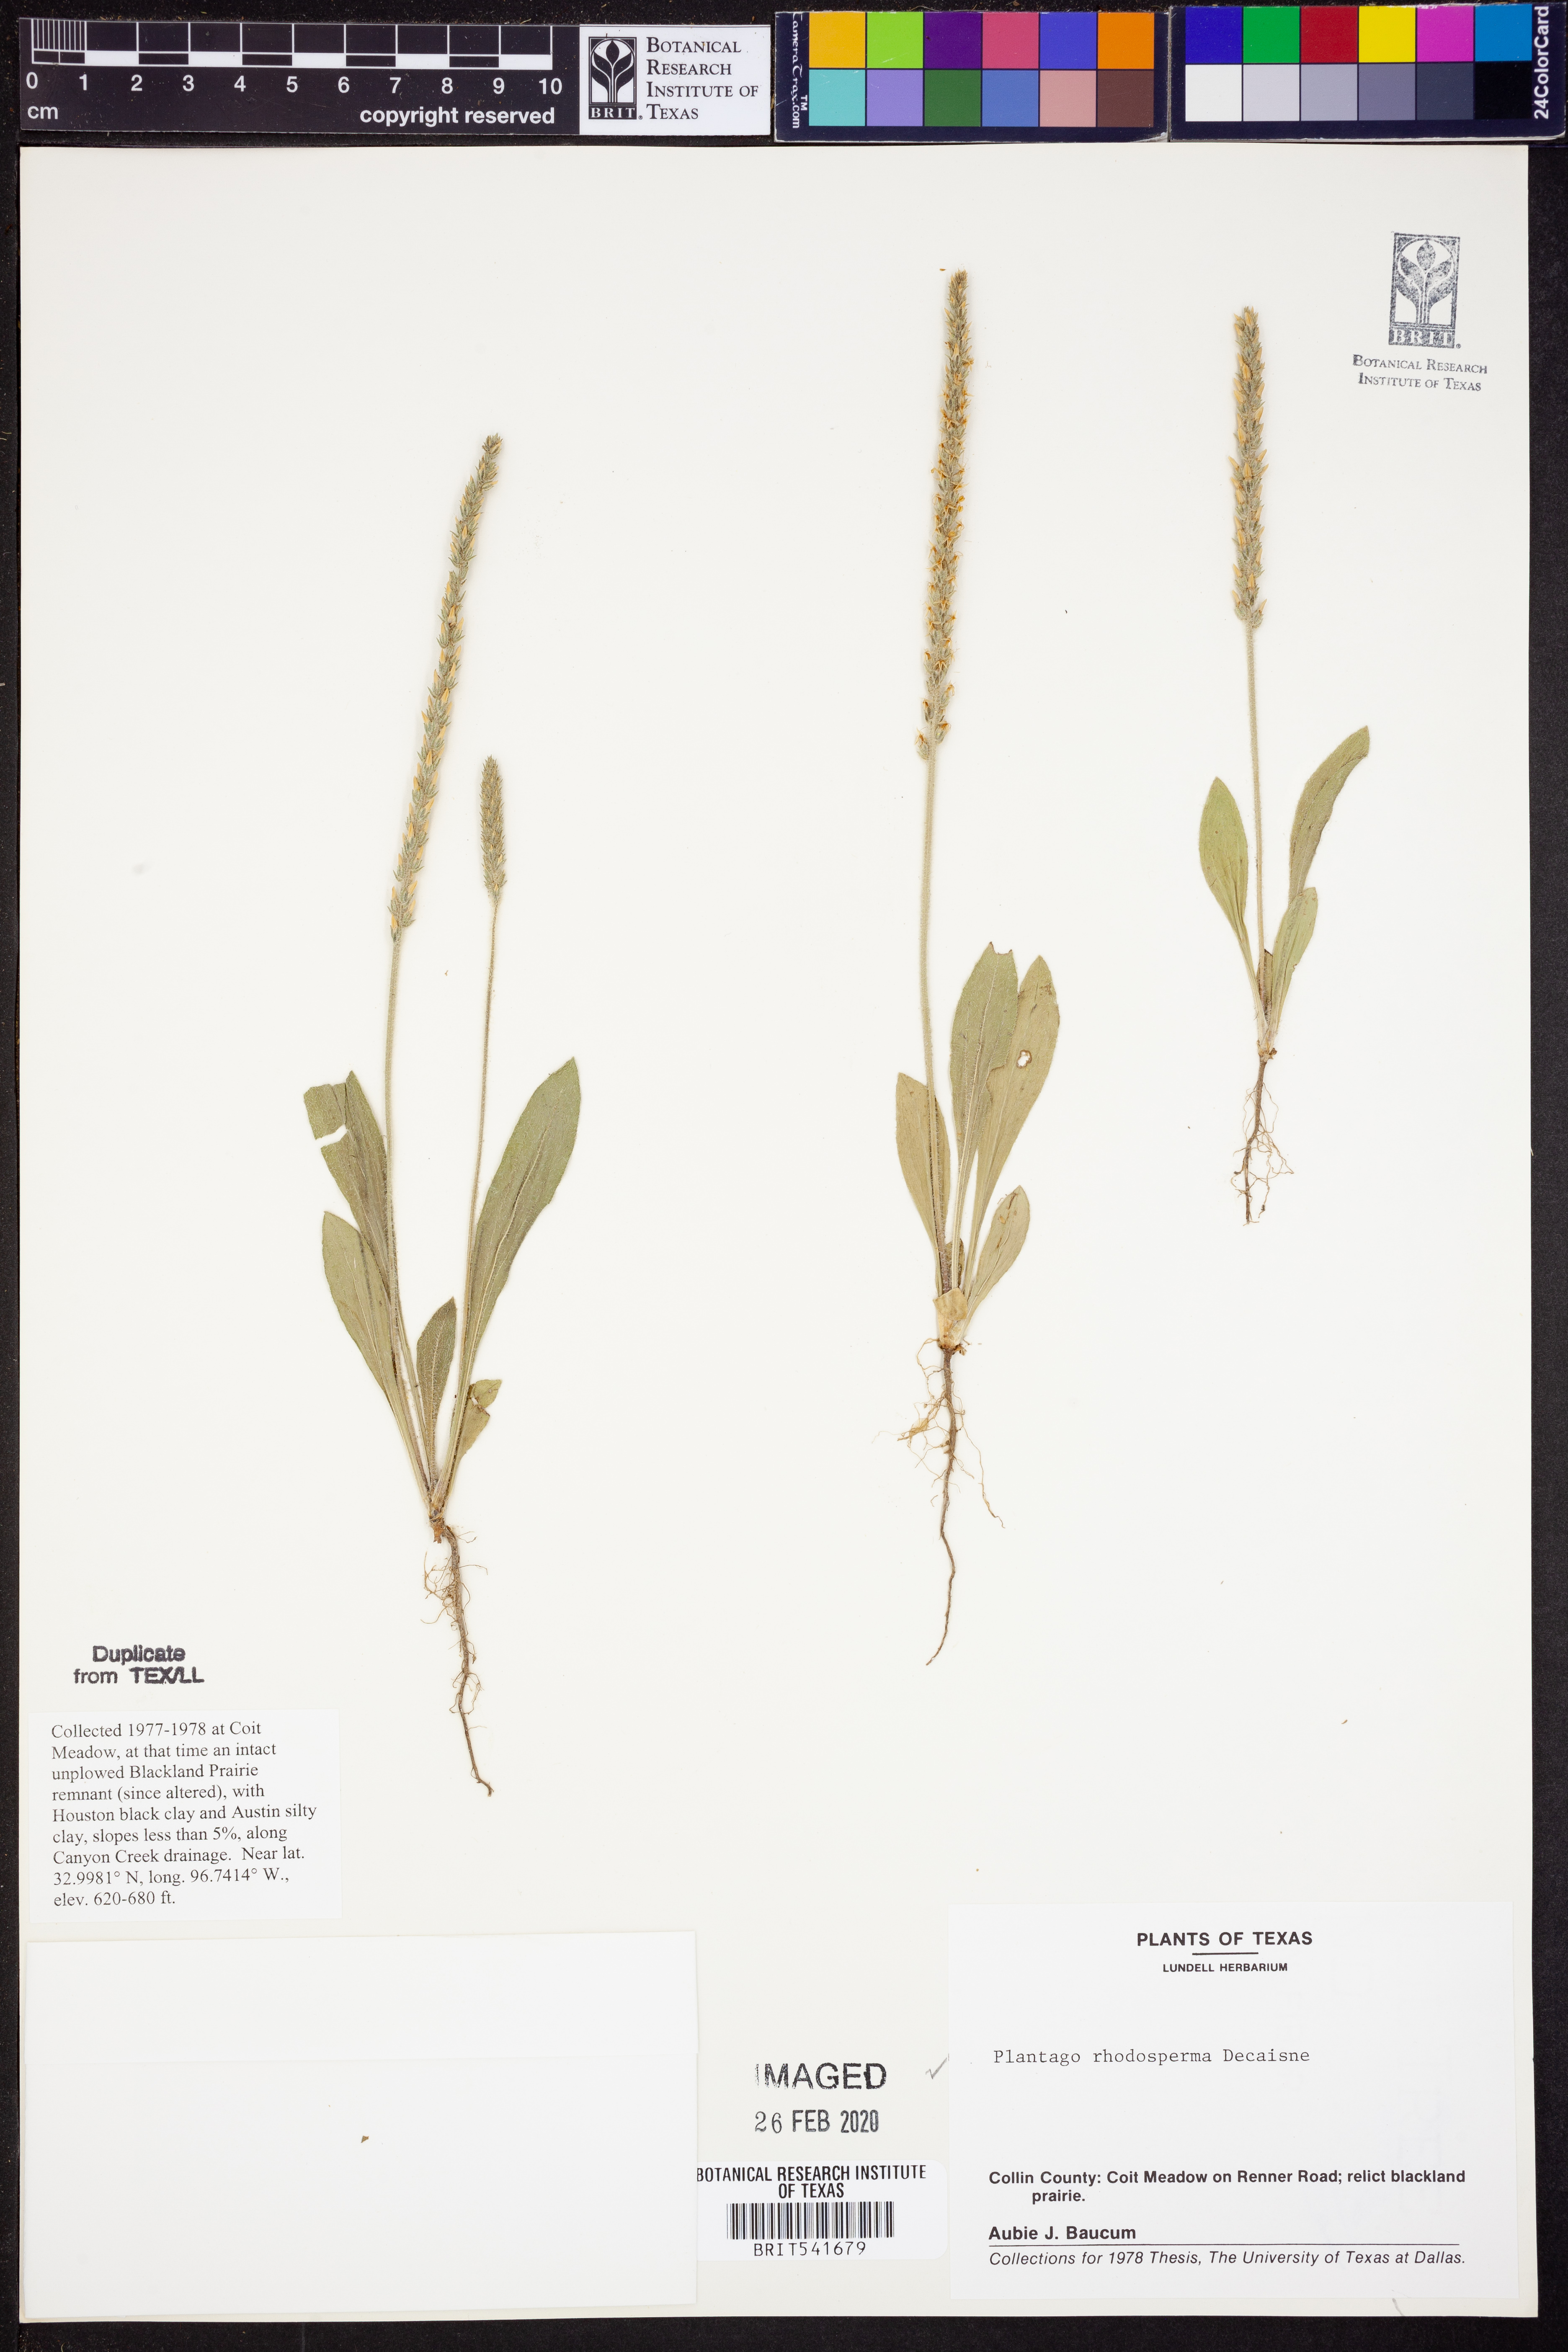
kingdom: Plantae
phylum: Tracheophyta
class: Magnoliopsida
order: Lamiales
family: Plantaginaceae
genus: Plantago
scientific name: Plantago rhodosperma
